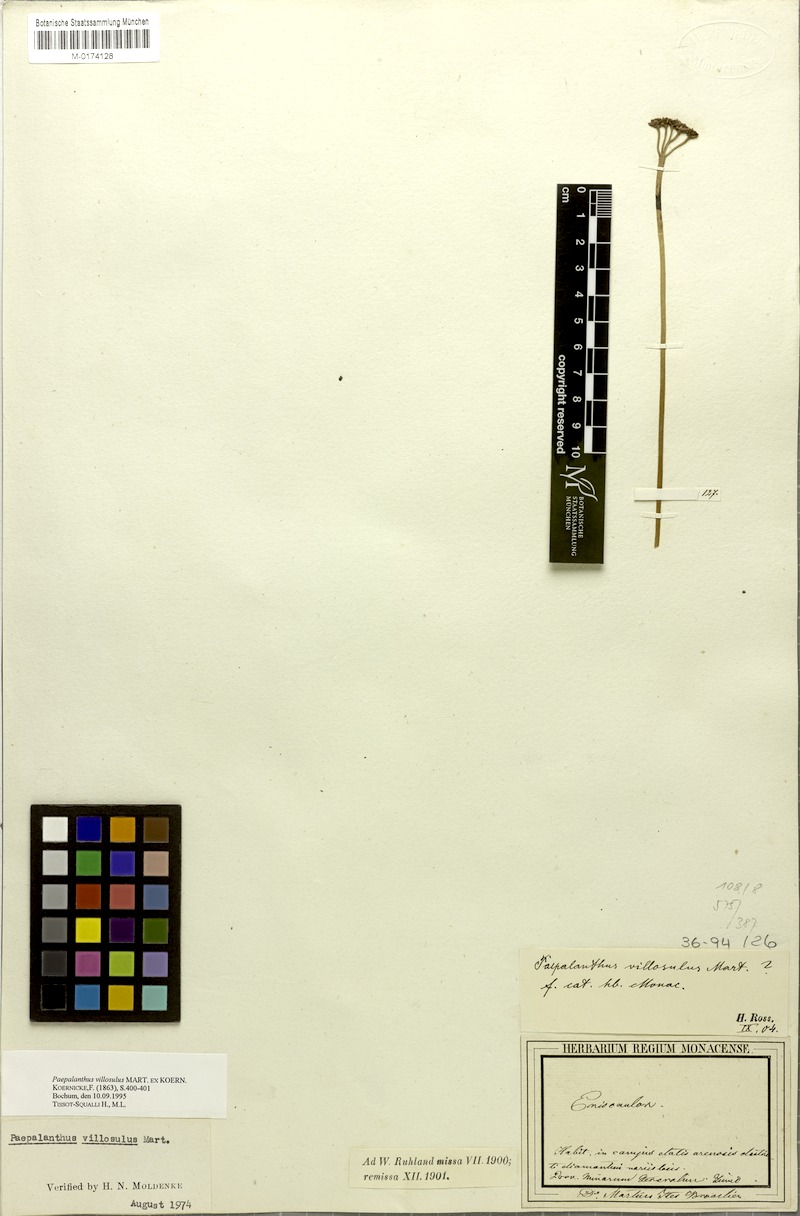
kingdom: Plantae
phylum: Tracheophyta
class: Liliopsida
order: Poales
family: Eriocaulaceae
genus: Paepalanthus
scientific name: Paepalanthus villosulus
